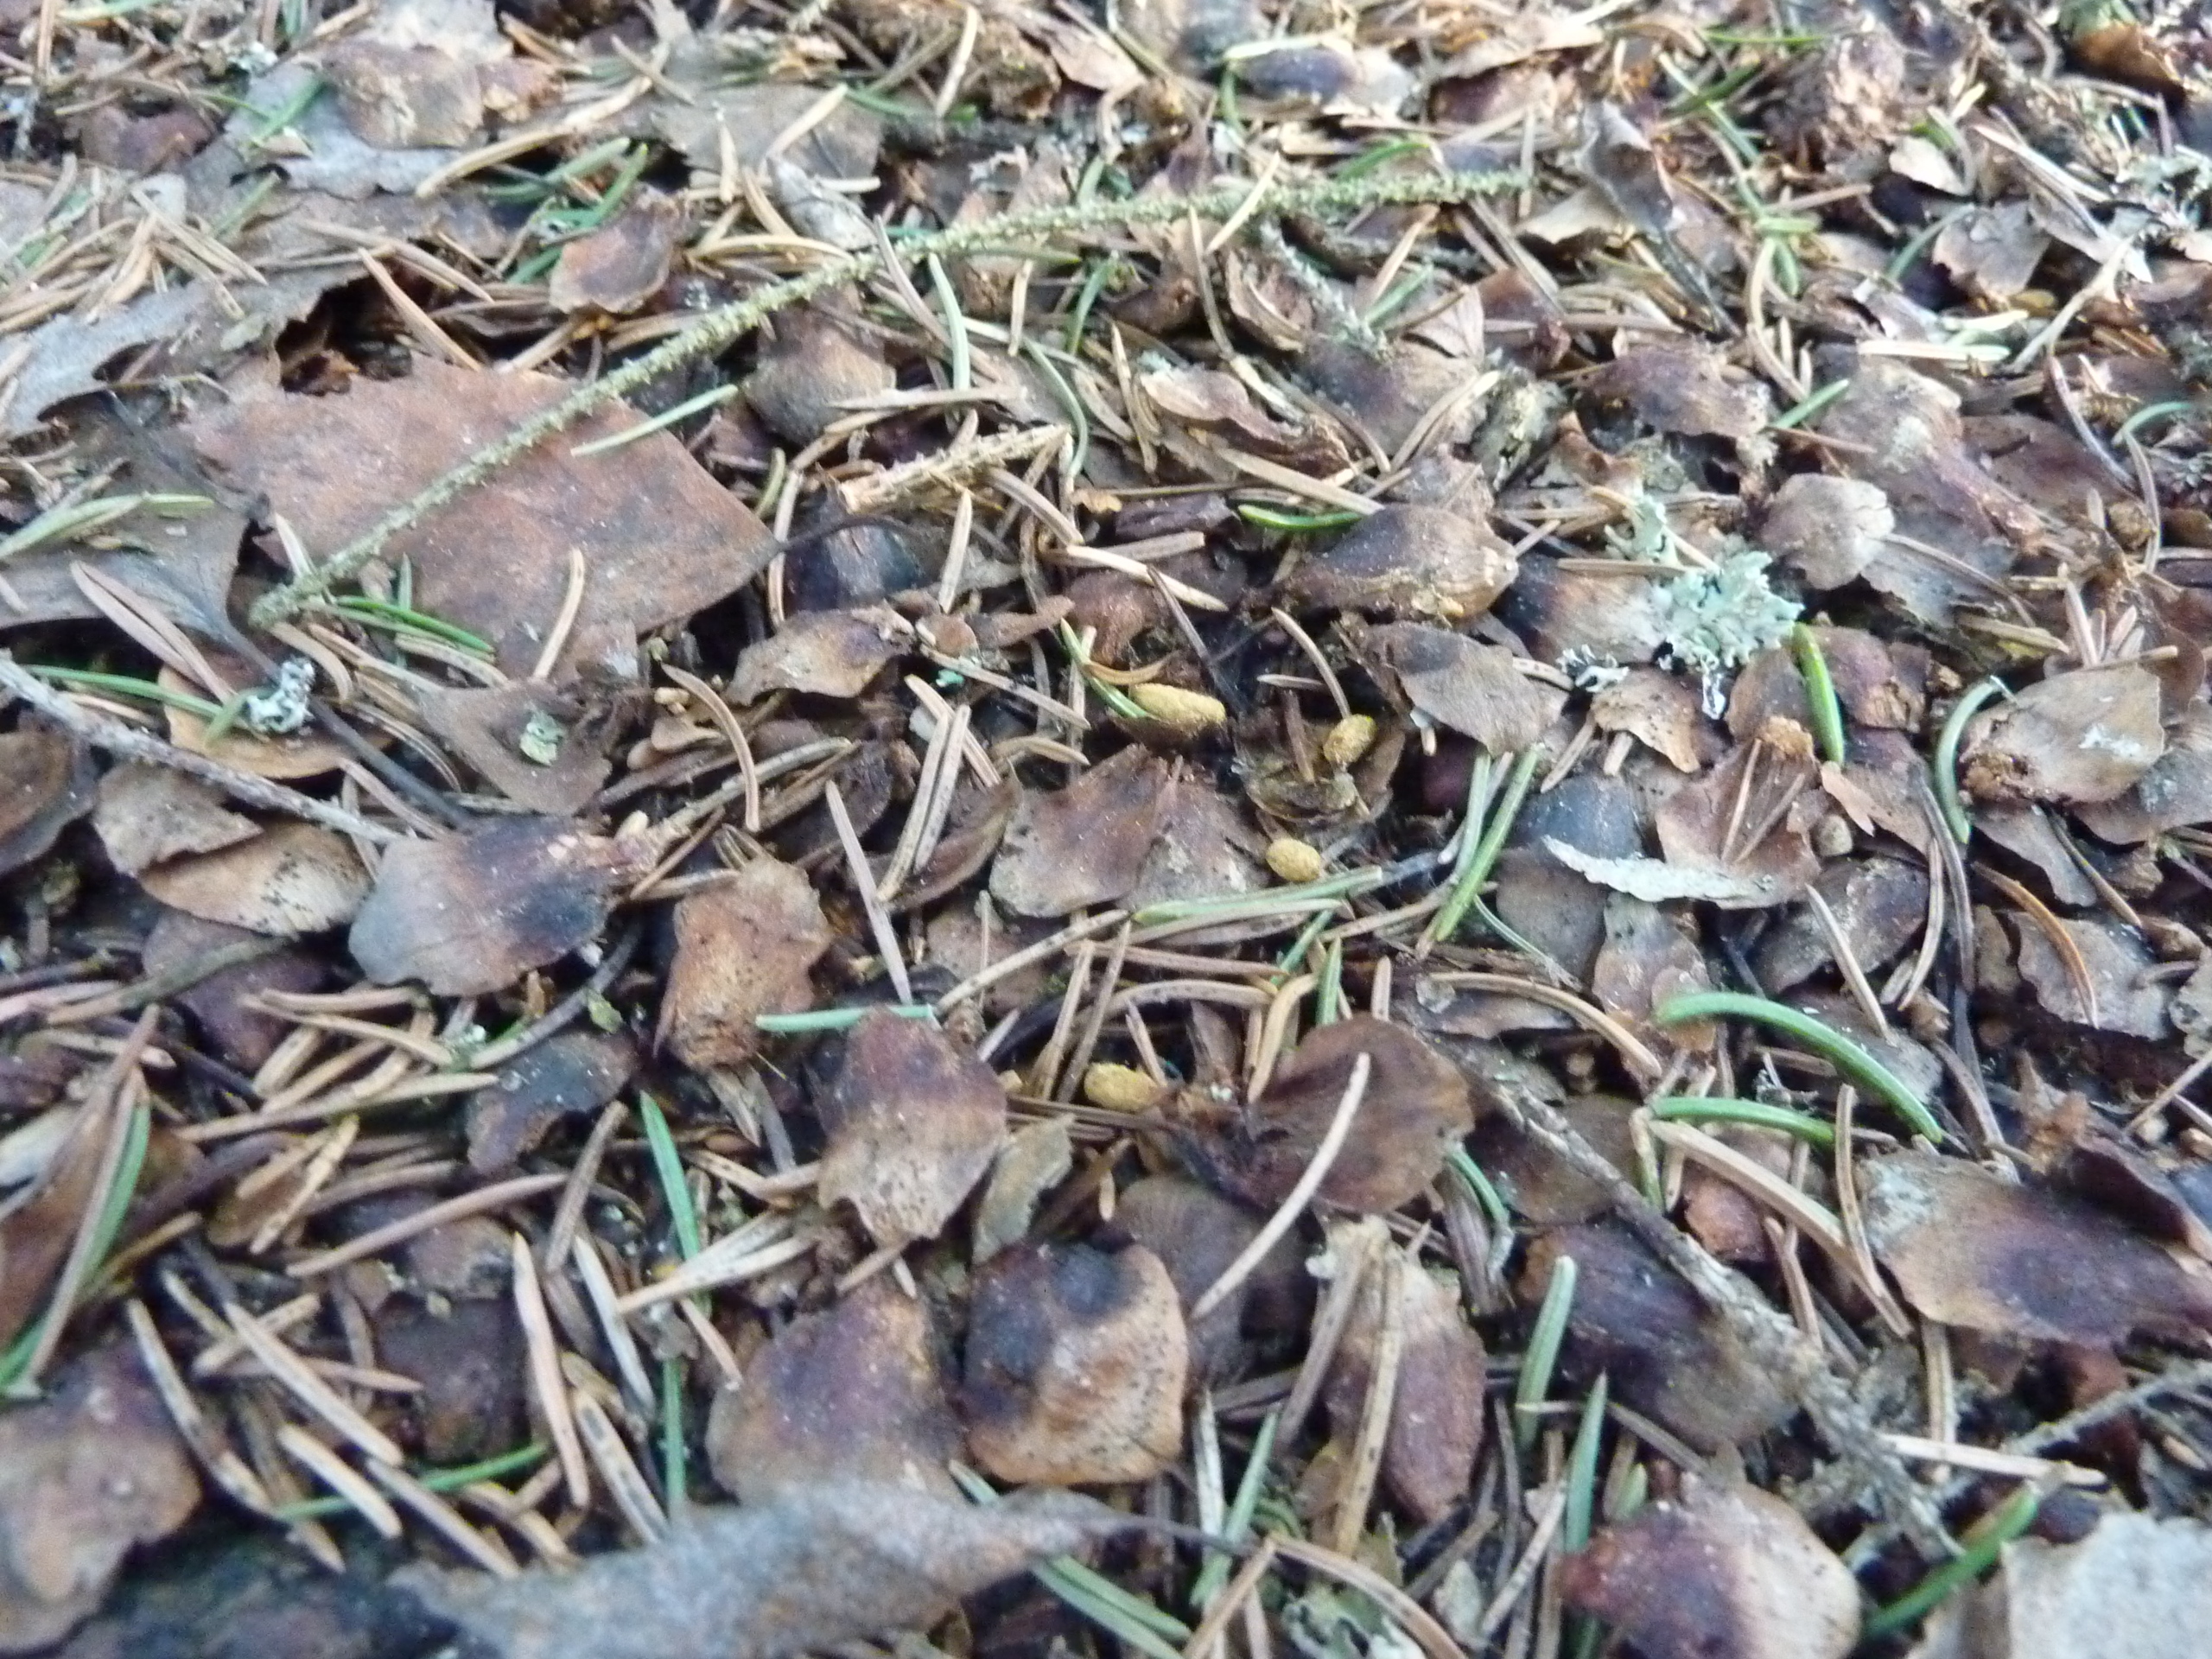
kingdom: Animalia
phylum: Chordata
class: Mammalia
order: Rodentia
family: Sciuridae
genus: Pteromys
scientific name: Pteromys volans
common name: Siberian flying squirrel
